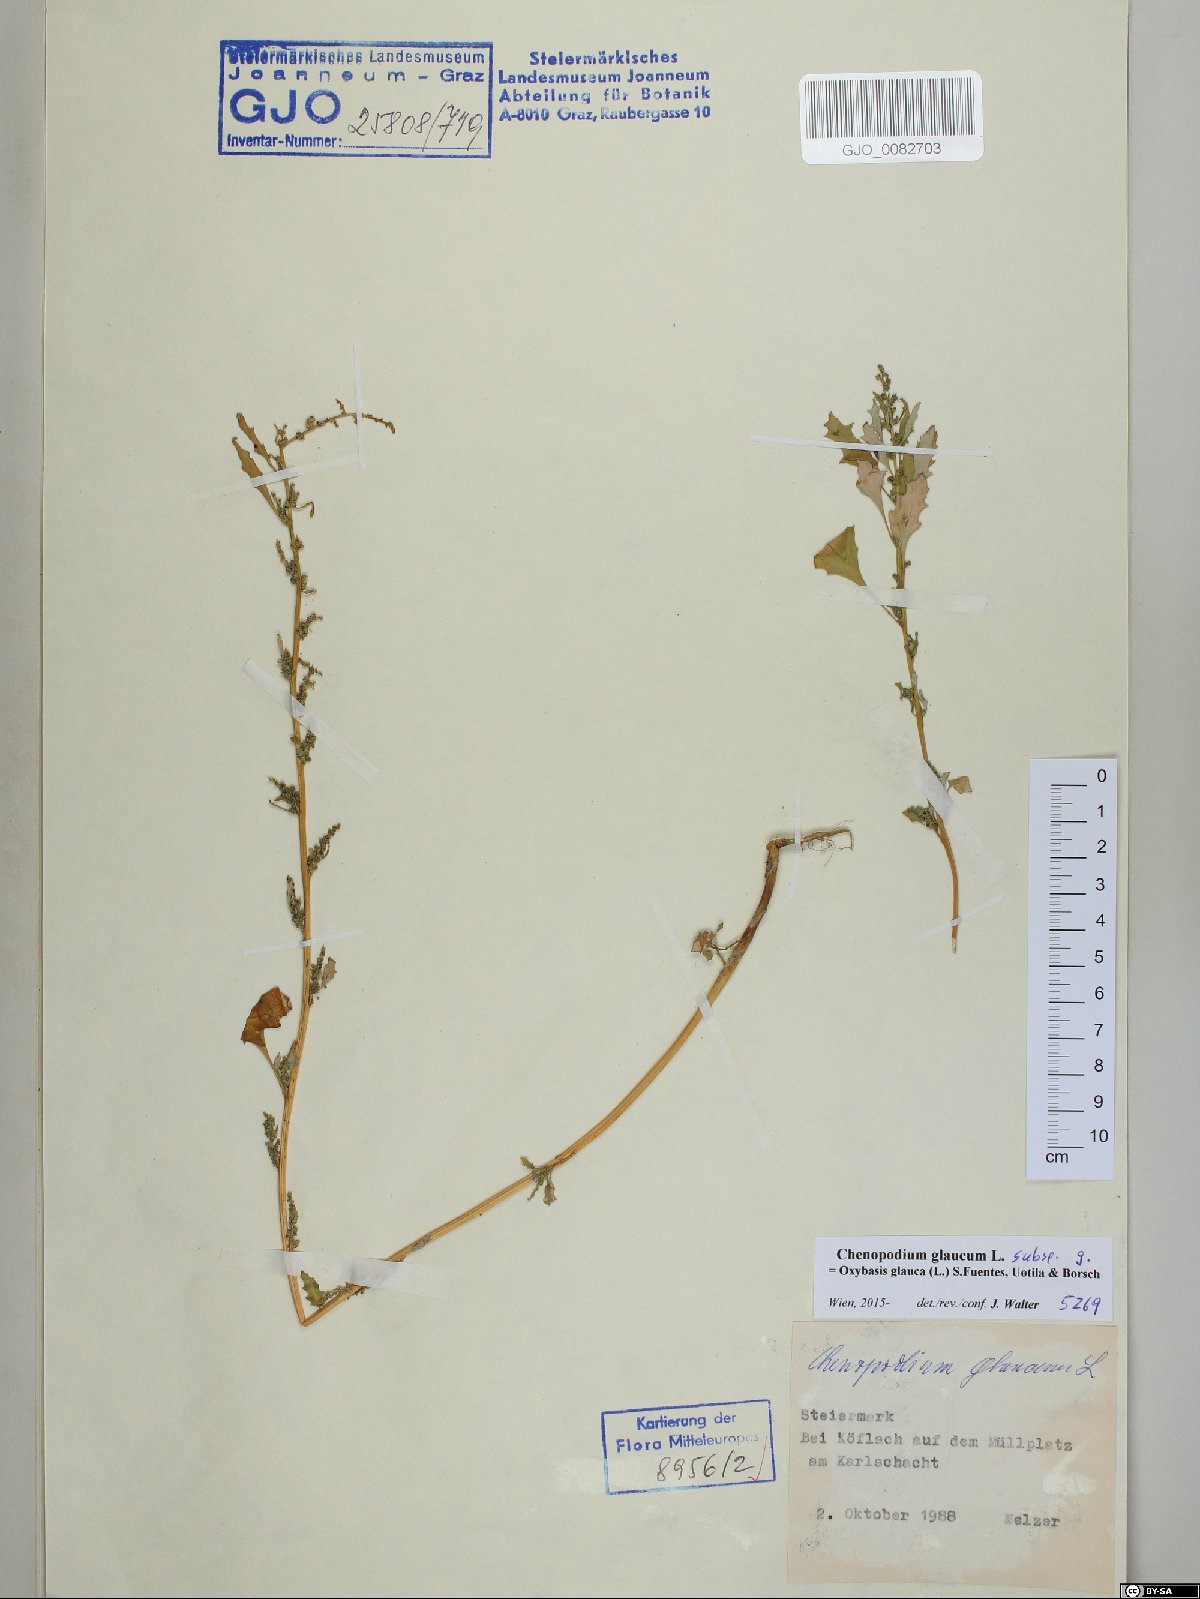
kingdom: Plantae
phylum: Tracheophyta
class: Magnoliopsida
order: Caryophyllales
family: Amaranthaceae
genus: Oxybasis
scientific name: Oxybasis glauca
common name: Glaucous goosefoot
